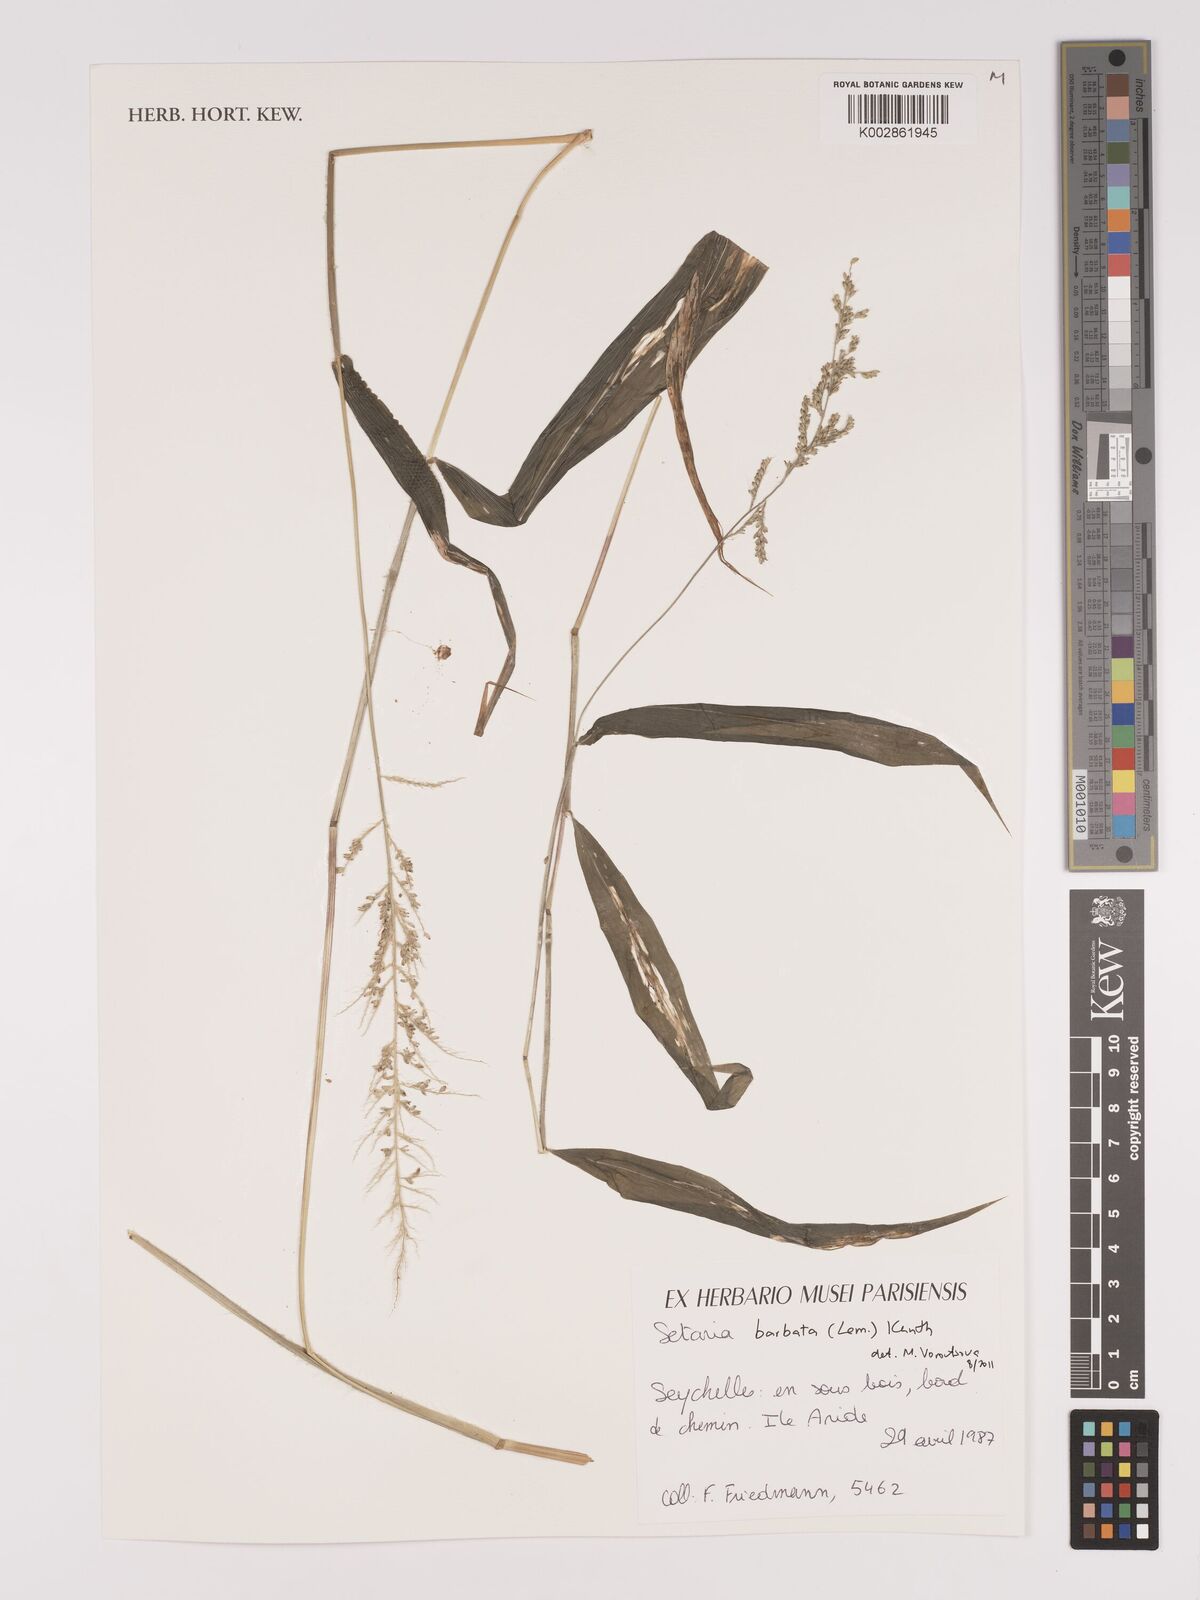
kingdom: Plantae
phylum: Tracheophyta
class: Liliopsida
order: Poales
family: Poaceae
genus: Setaria
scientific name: Setaria barbata
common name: East indian bristlegrass
